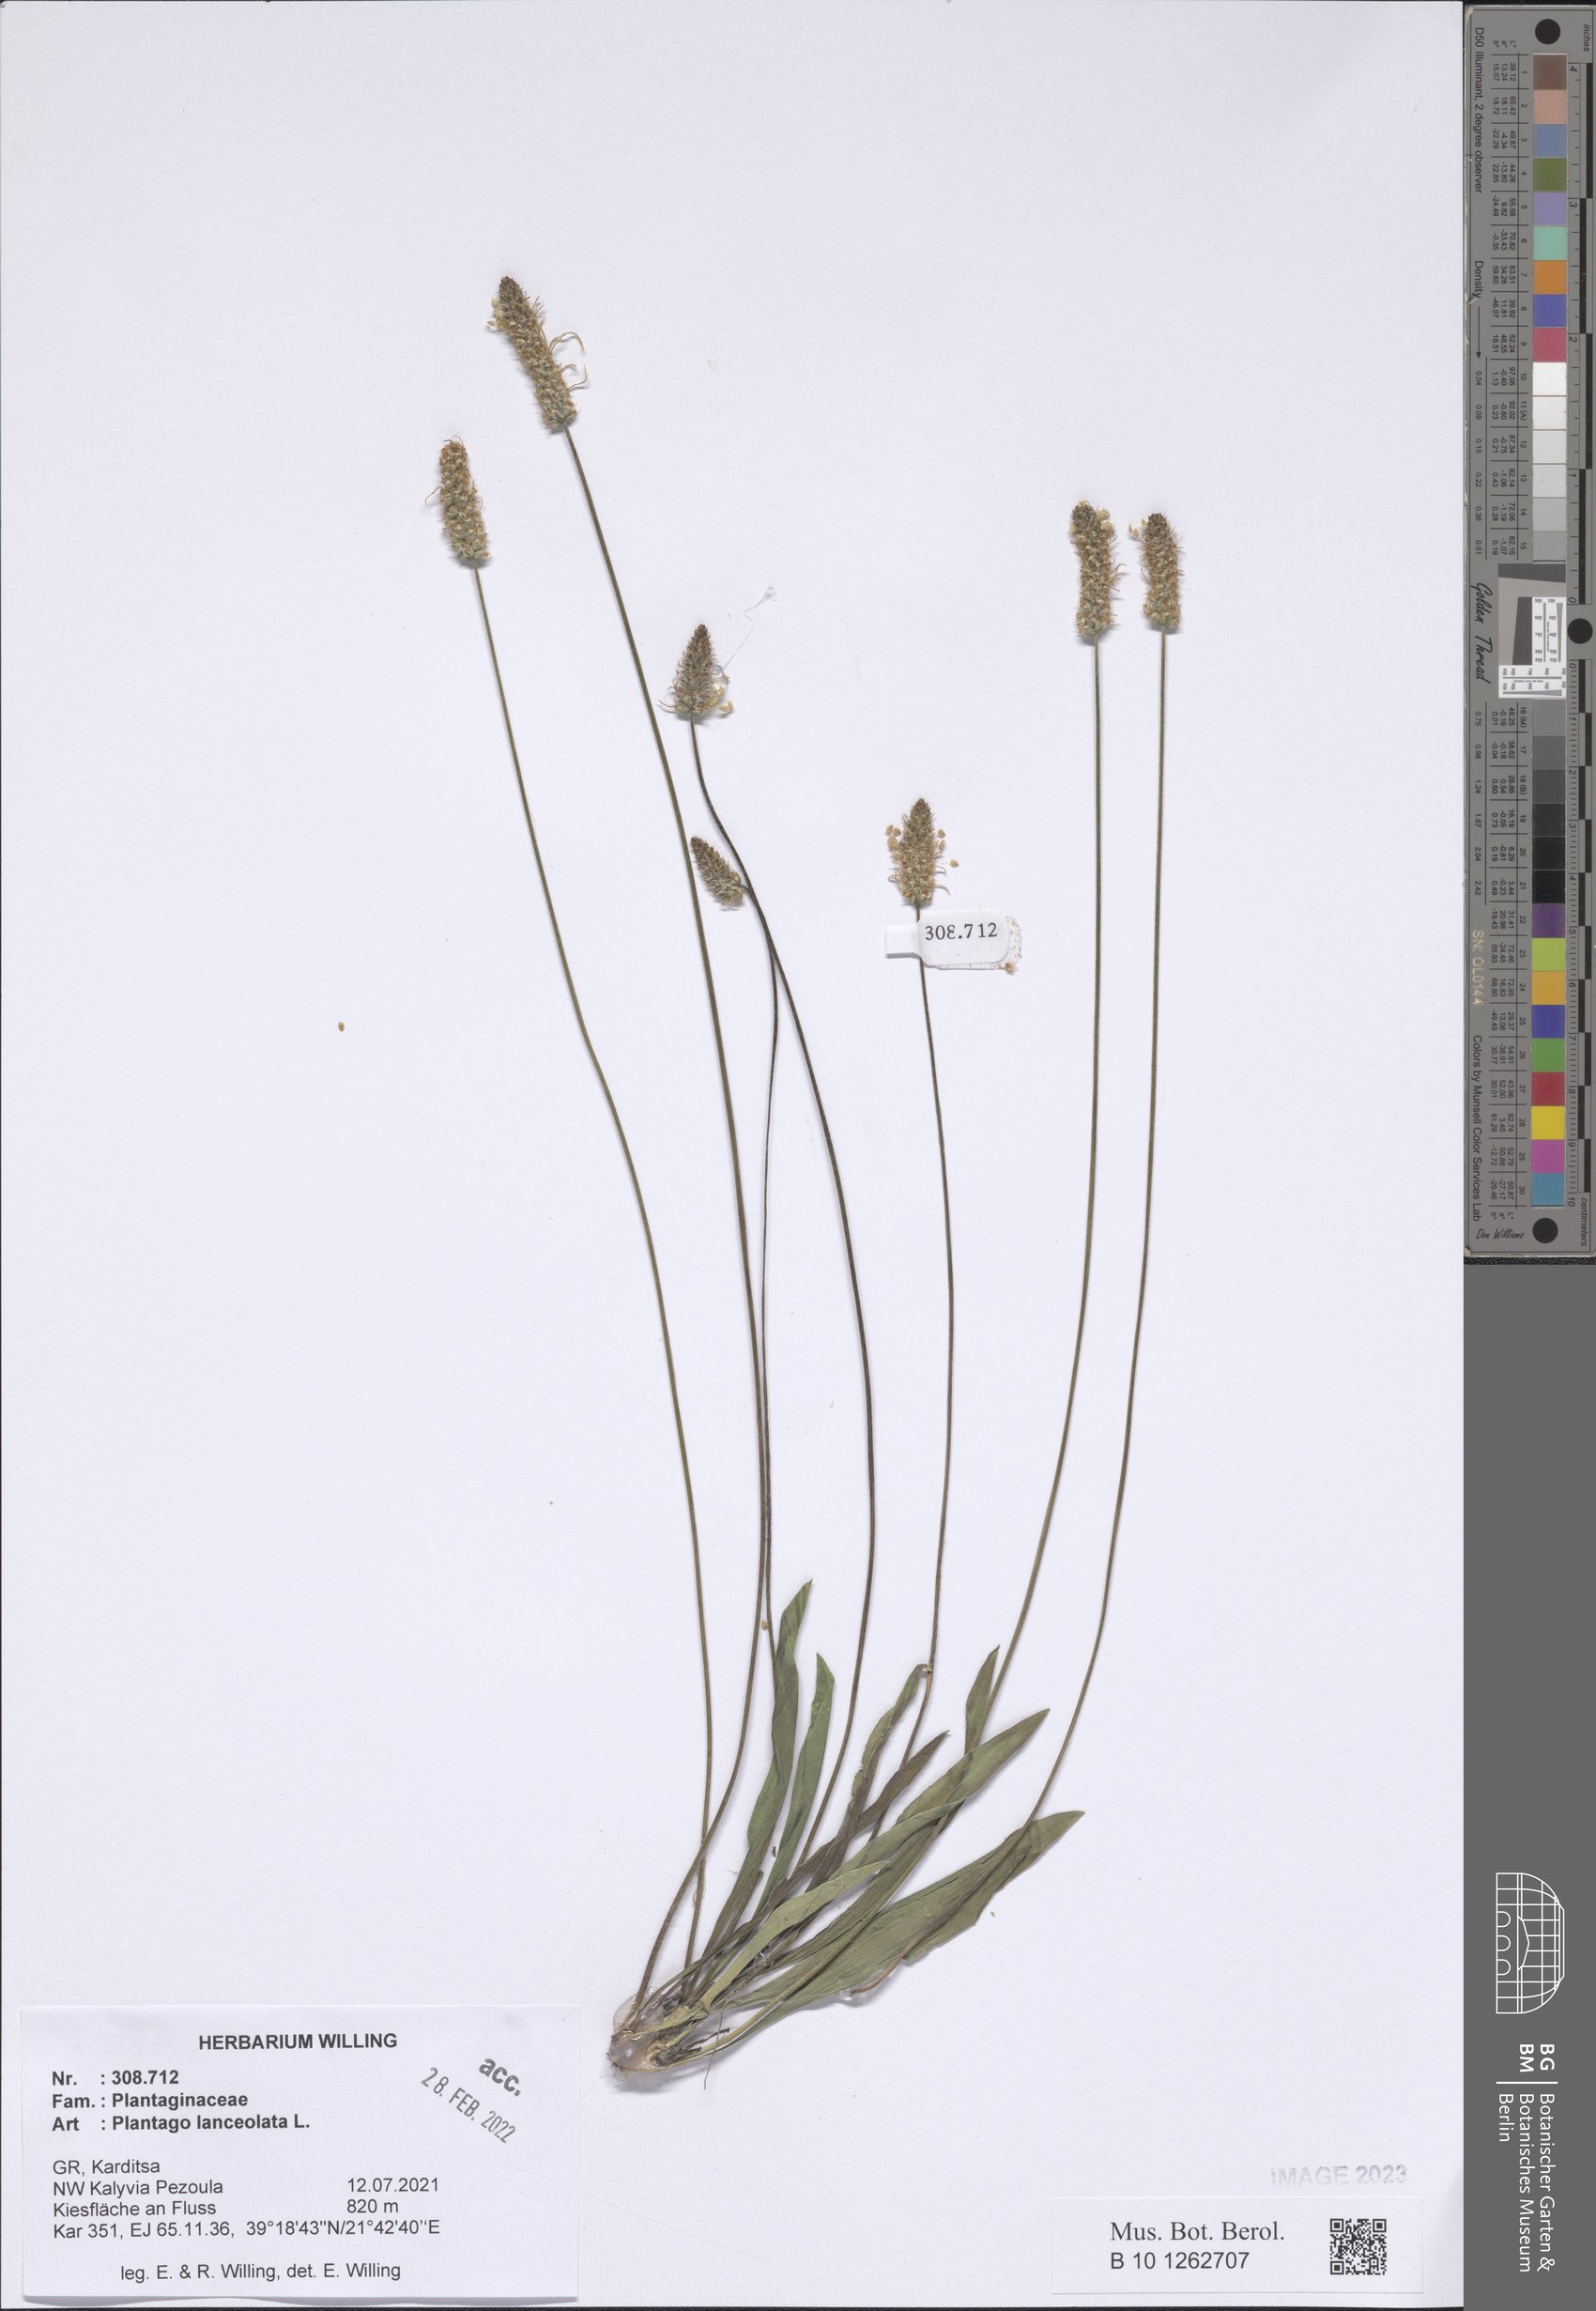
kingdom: Plantae
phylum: Tracheophyta
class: Magnoliopsida
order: Lamiales
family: Plantaginaceae
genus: Plantago
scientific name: Plantago lanceolata
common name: Ribwort plantain
